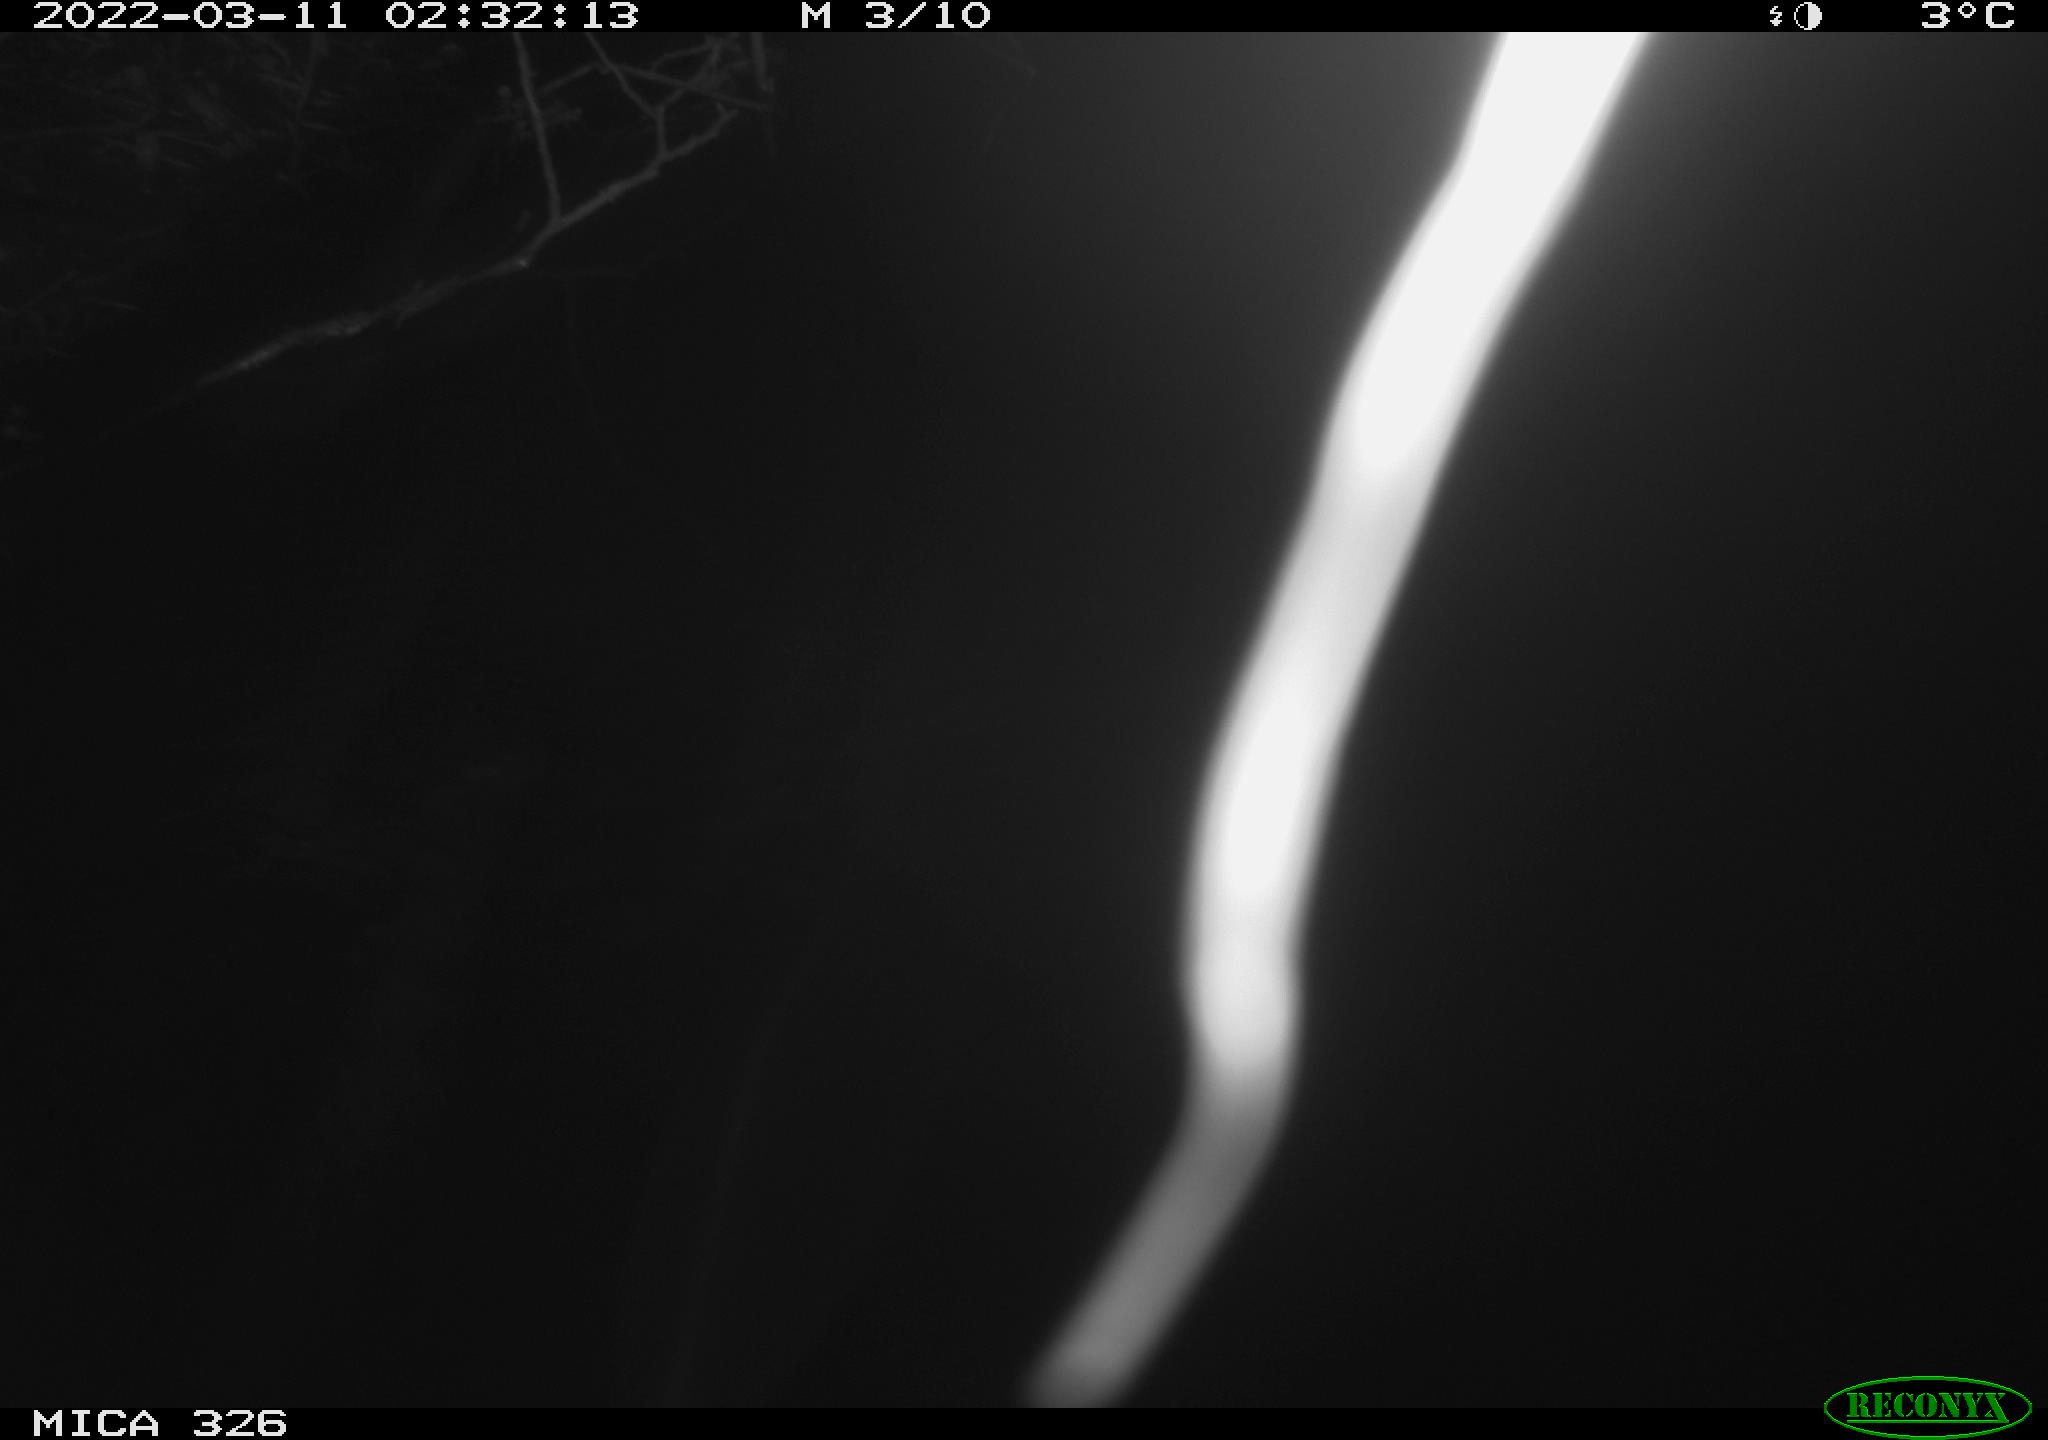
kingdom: Animalia
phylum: Chordata
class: Mammalia
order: Rodentia
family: Muridae
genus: Rattus
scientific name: Rattus norvegicus
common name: Brown rat
